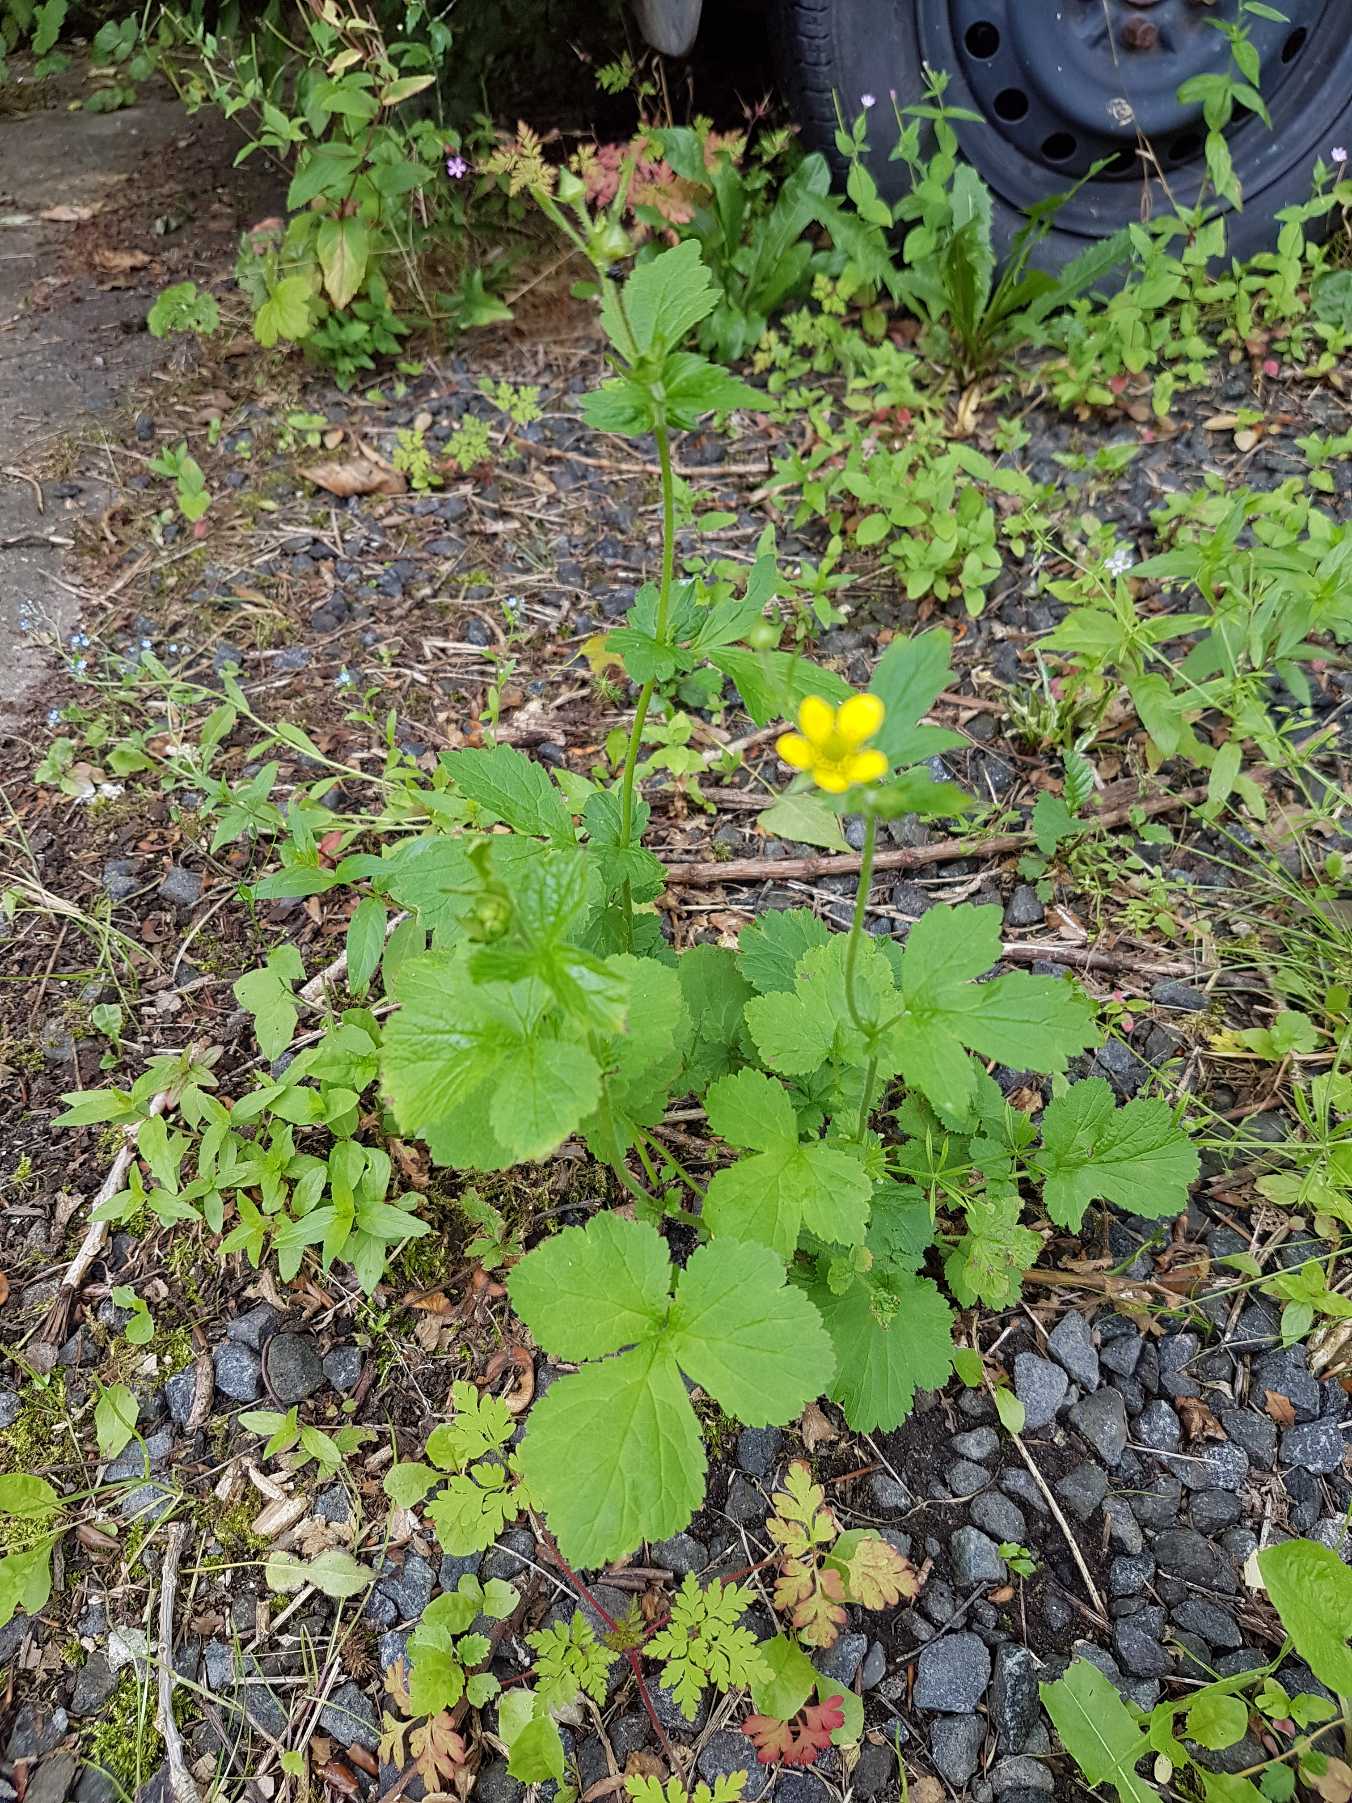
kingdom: Plantae
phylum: Tracheophyta
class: Magnoliopsida
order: Rosales
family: Rosaceae
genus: Geum
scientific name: Geum urbanum
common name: Feber-nellikerod
